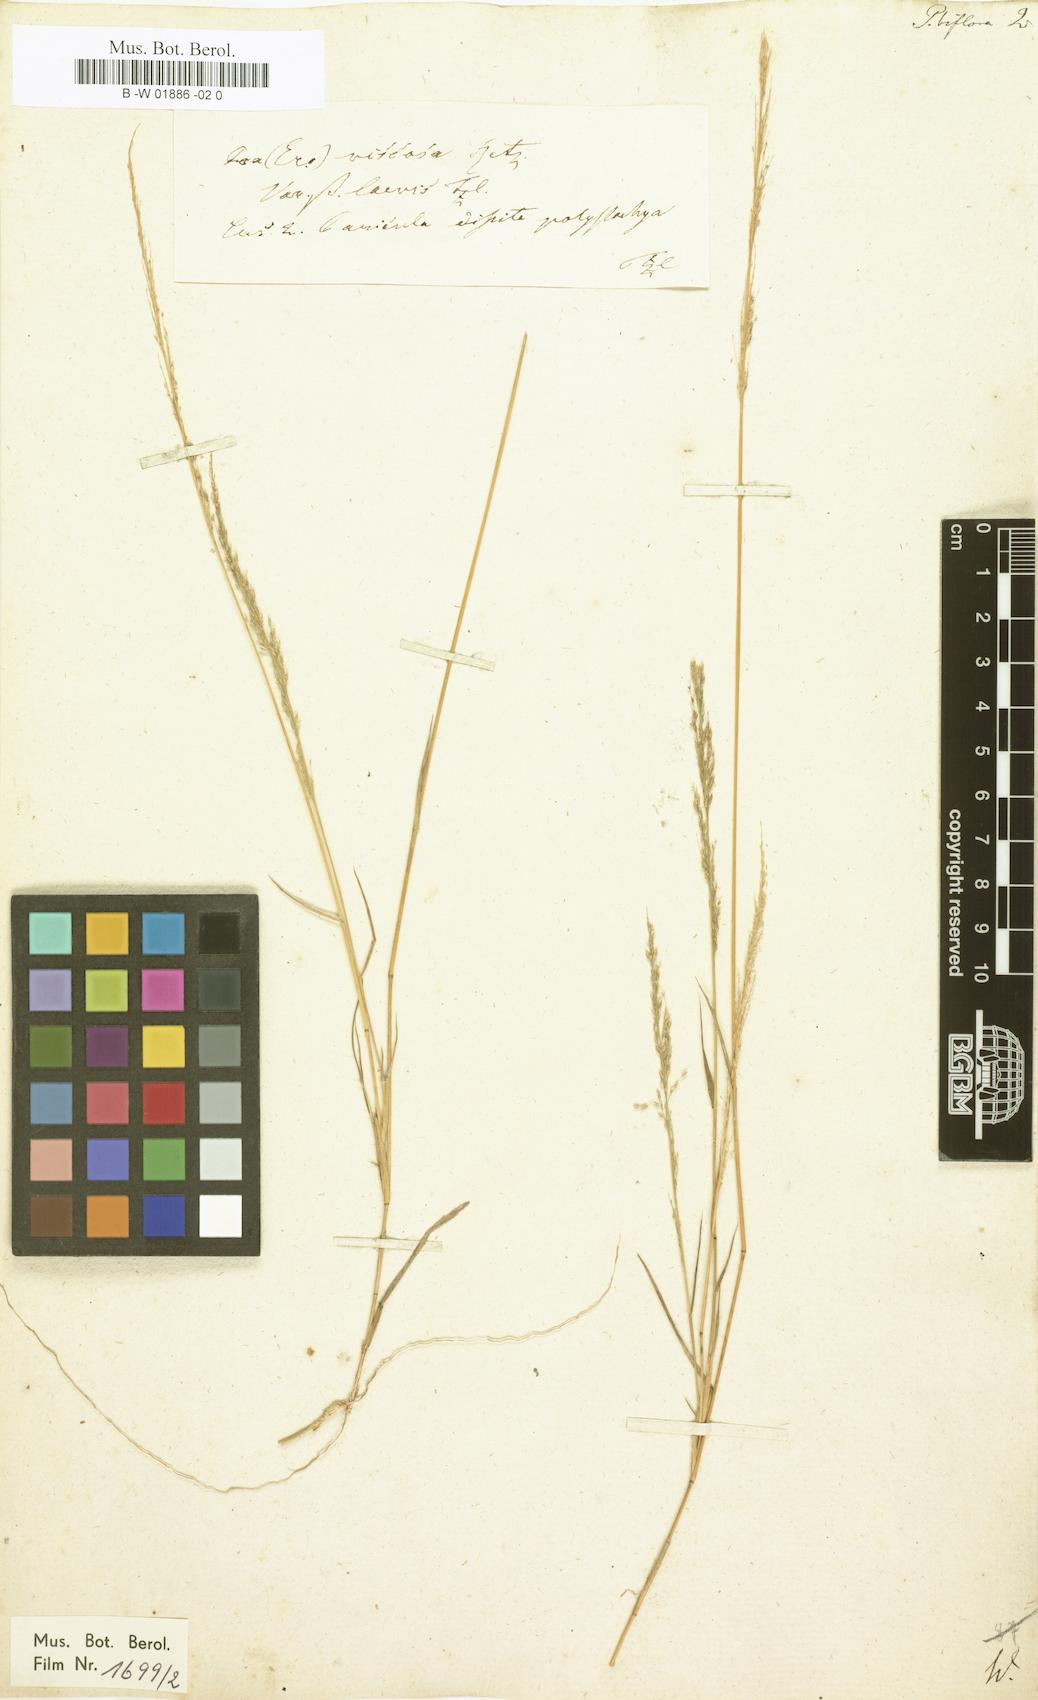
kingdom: Plantae
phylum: Tracheophyta
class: Liliopsida
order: Poales
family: Poaceae
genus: Eragrostis
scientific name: Eragrostis japonica
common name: Pond lovegrass
